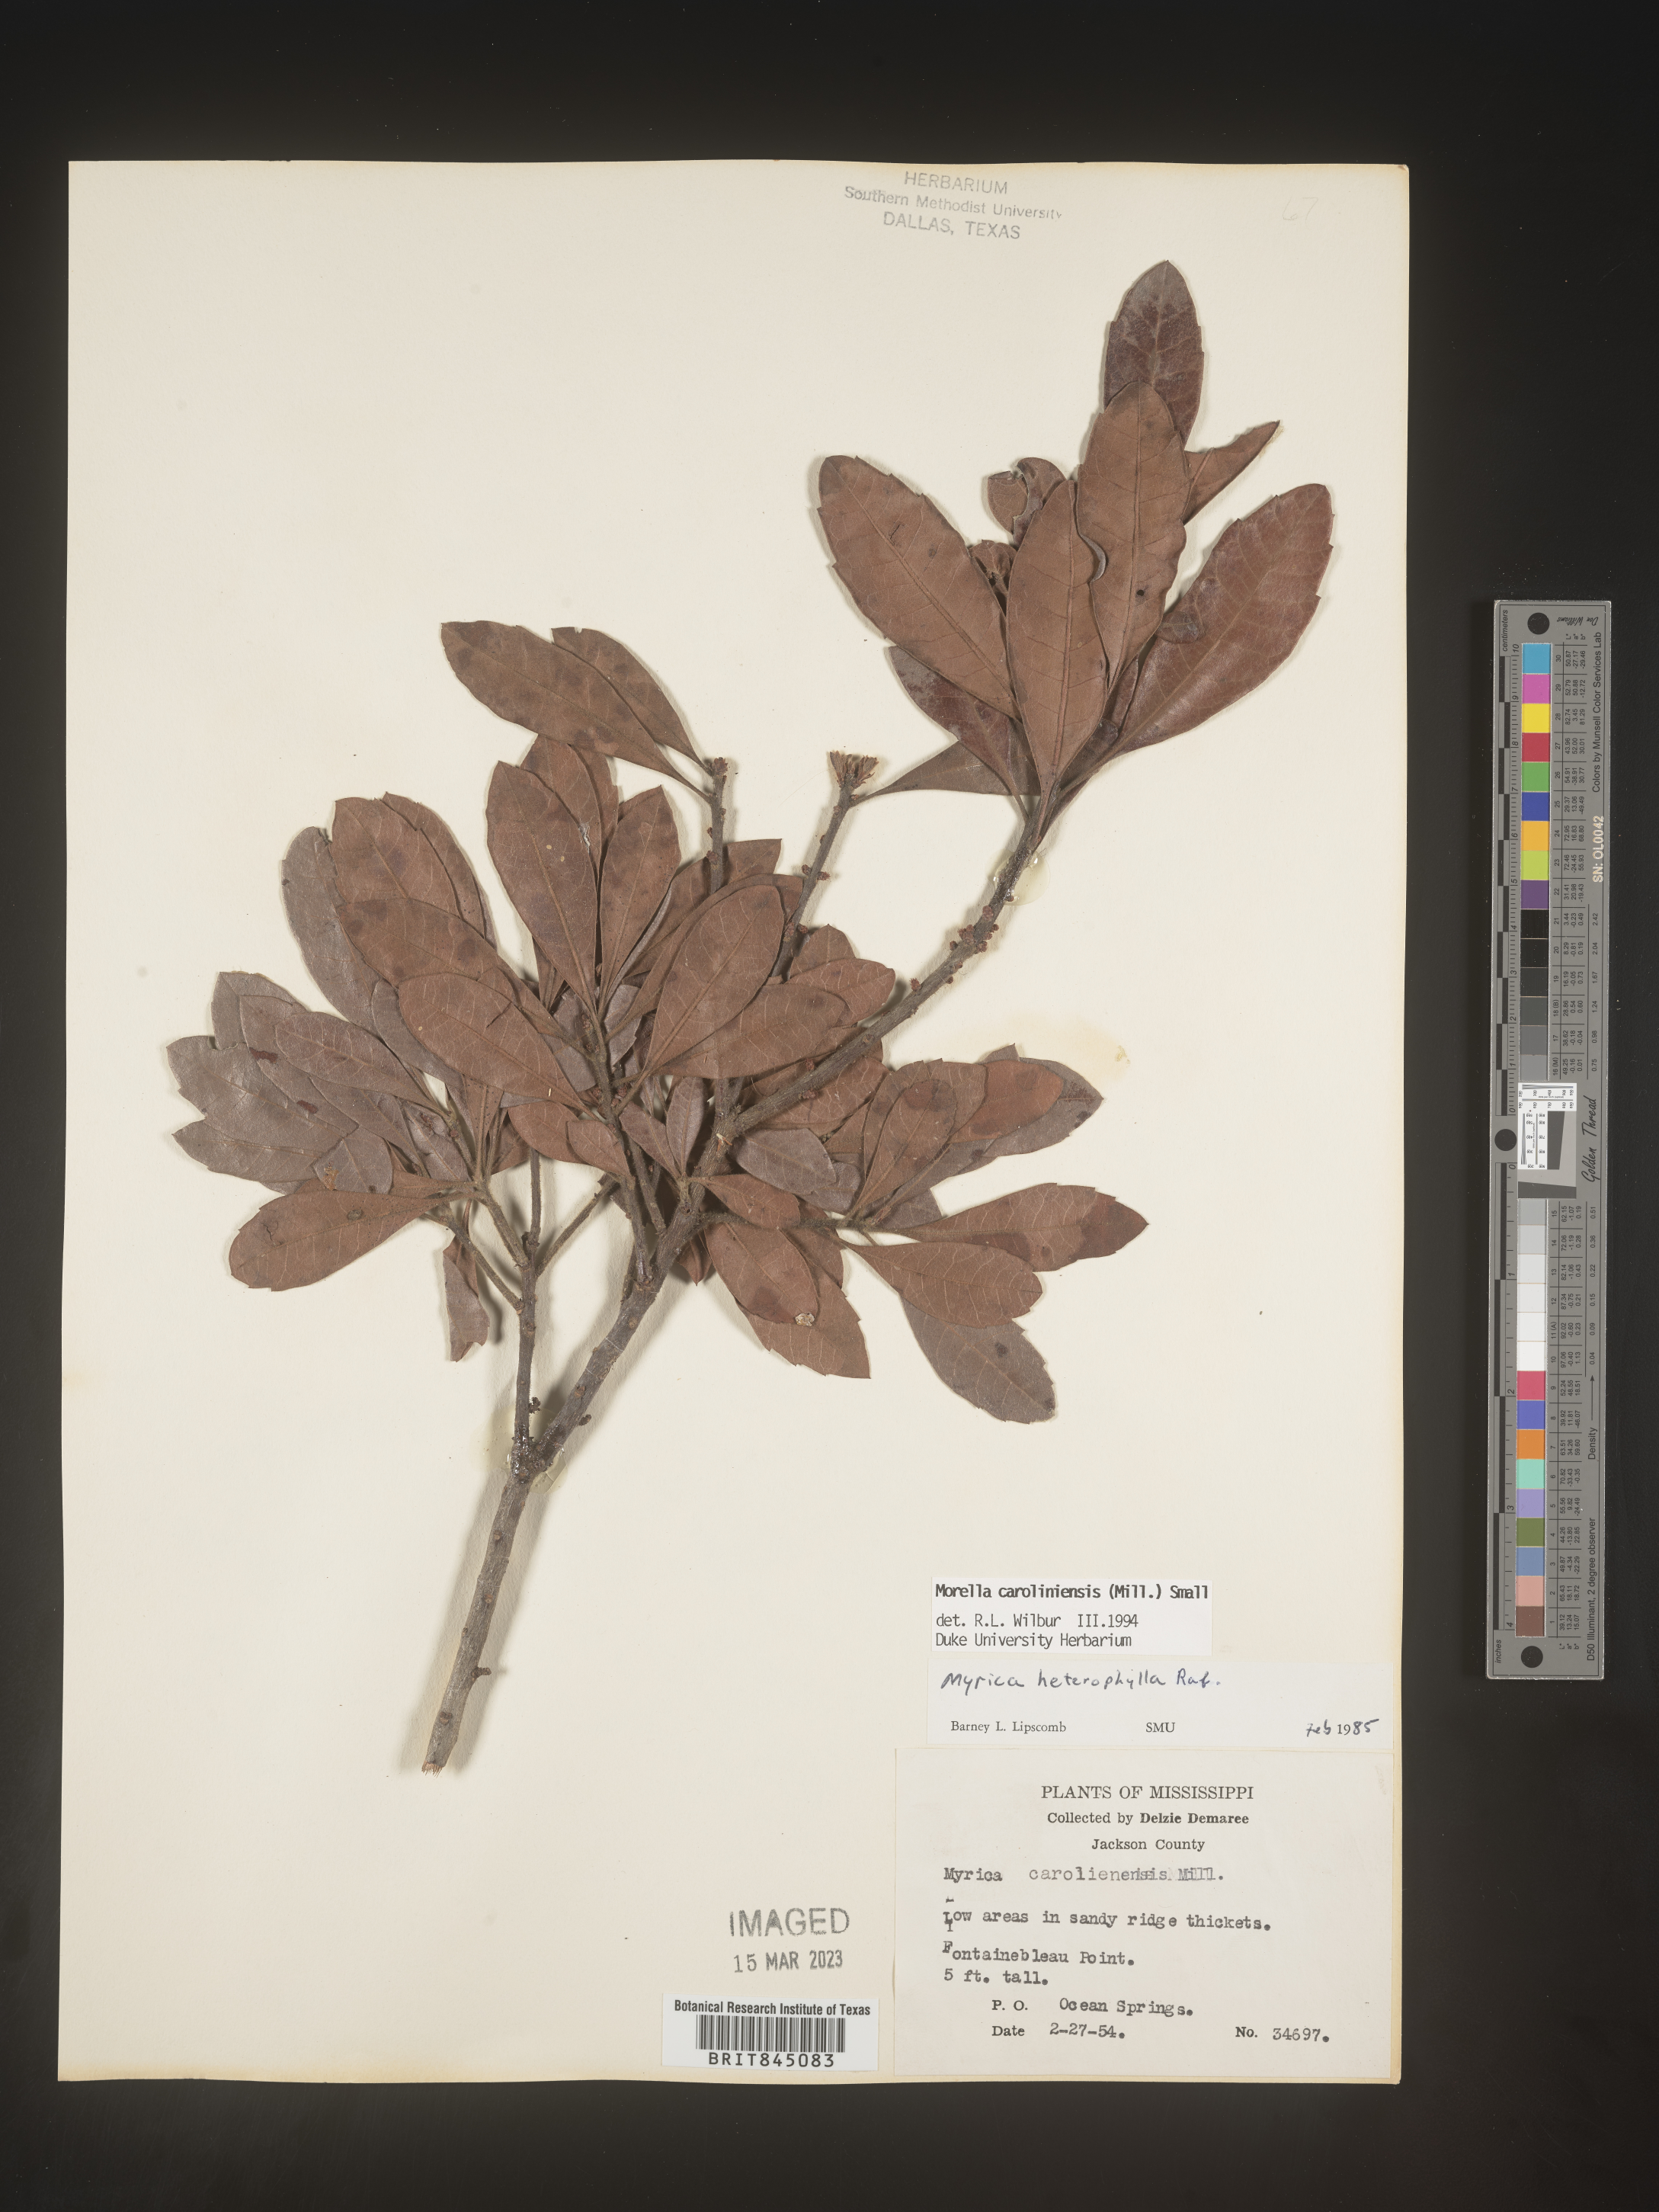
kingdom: Plantae
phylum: Tracheophyta
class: Magnoliopsida
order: Fagales
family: Myricaceae
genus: Morella
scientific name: Morella caroliniensis
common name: Evergreen bayberry
